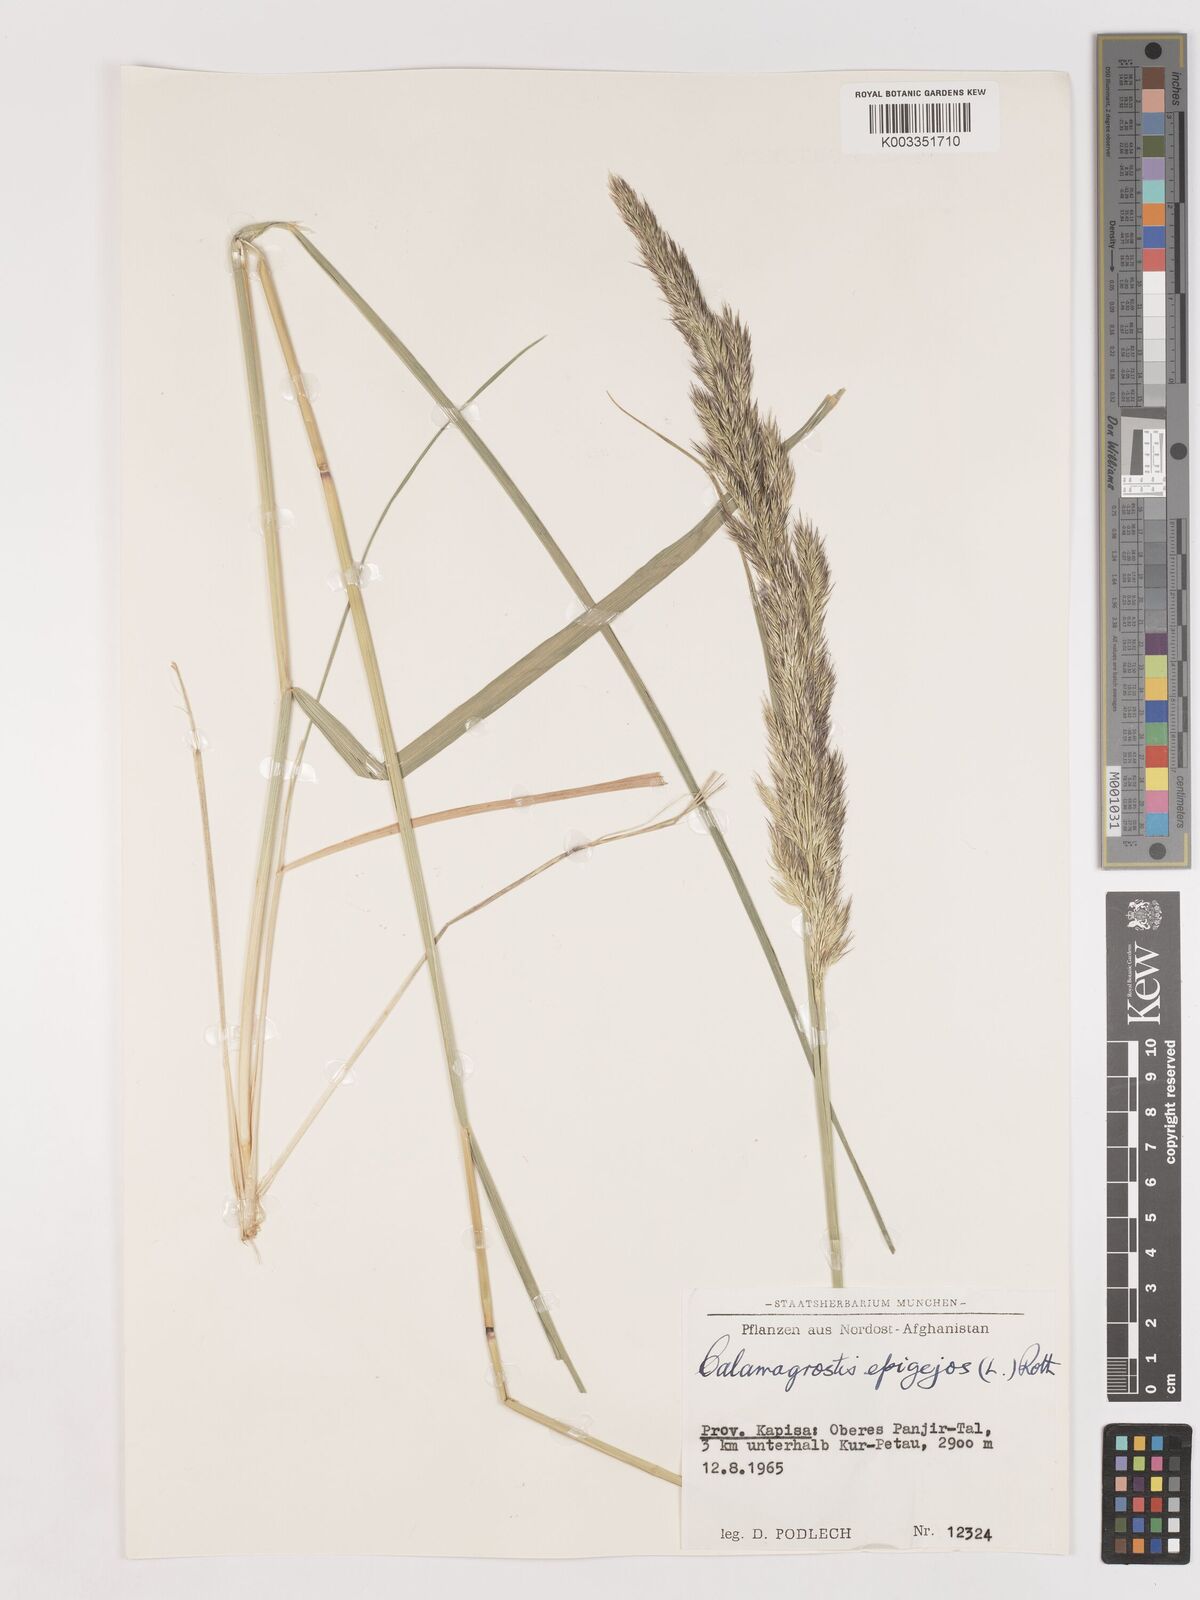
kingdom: Plantae
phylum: Tracheophyta
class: Liliopsida
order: Poales
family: Poaceae
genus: Calamagrostis
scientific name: Calamagrostis epigejos
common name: Wood small-reed
